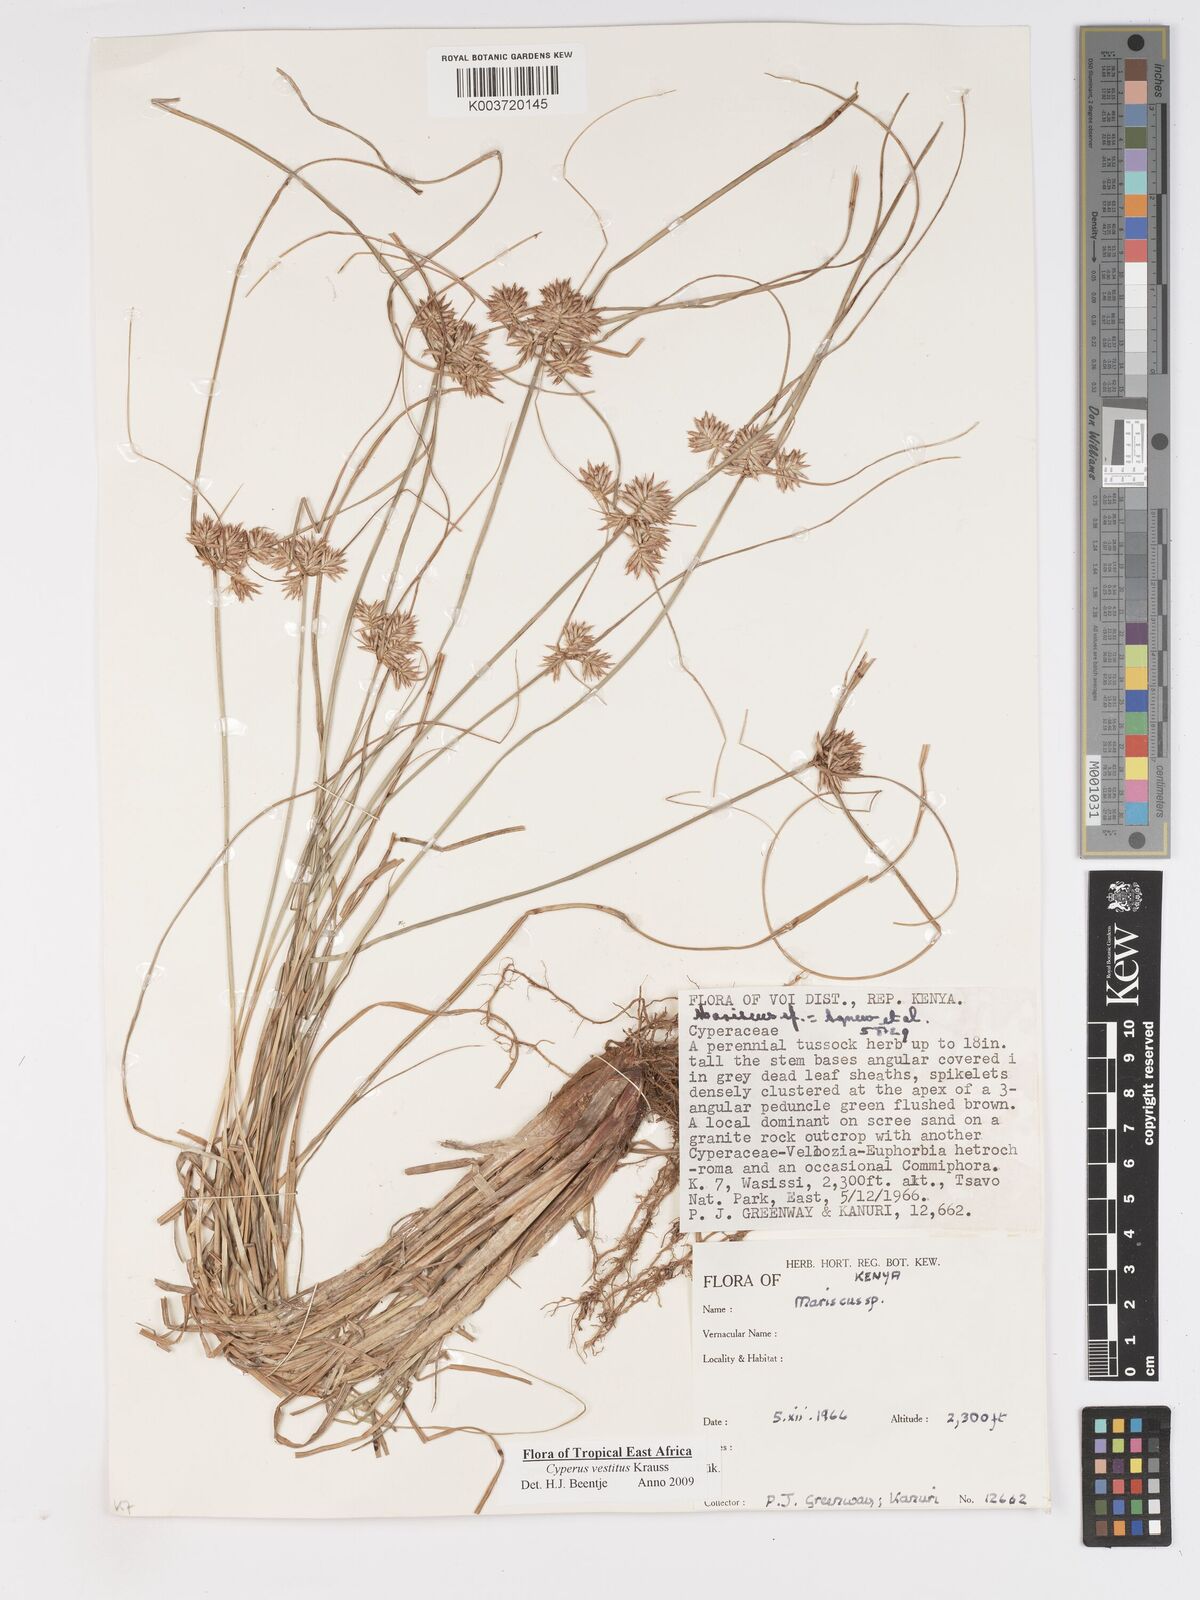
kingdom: Plantae
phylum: Tracheophyta
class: Liliopsida
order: Poales
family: Cyperaceae
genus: Cyperus
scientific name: Cyperus vestitus
